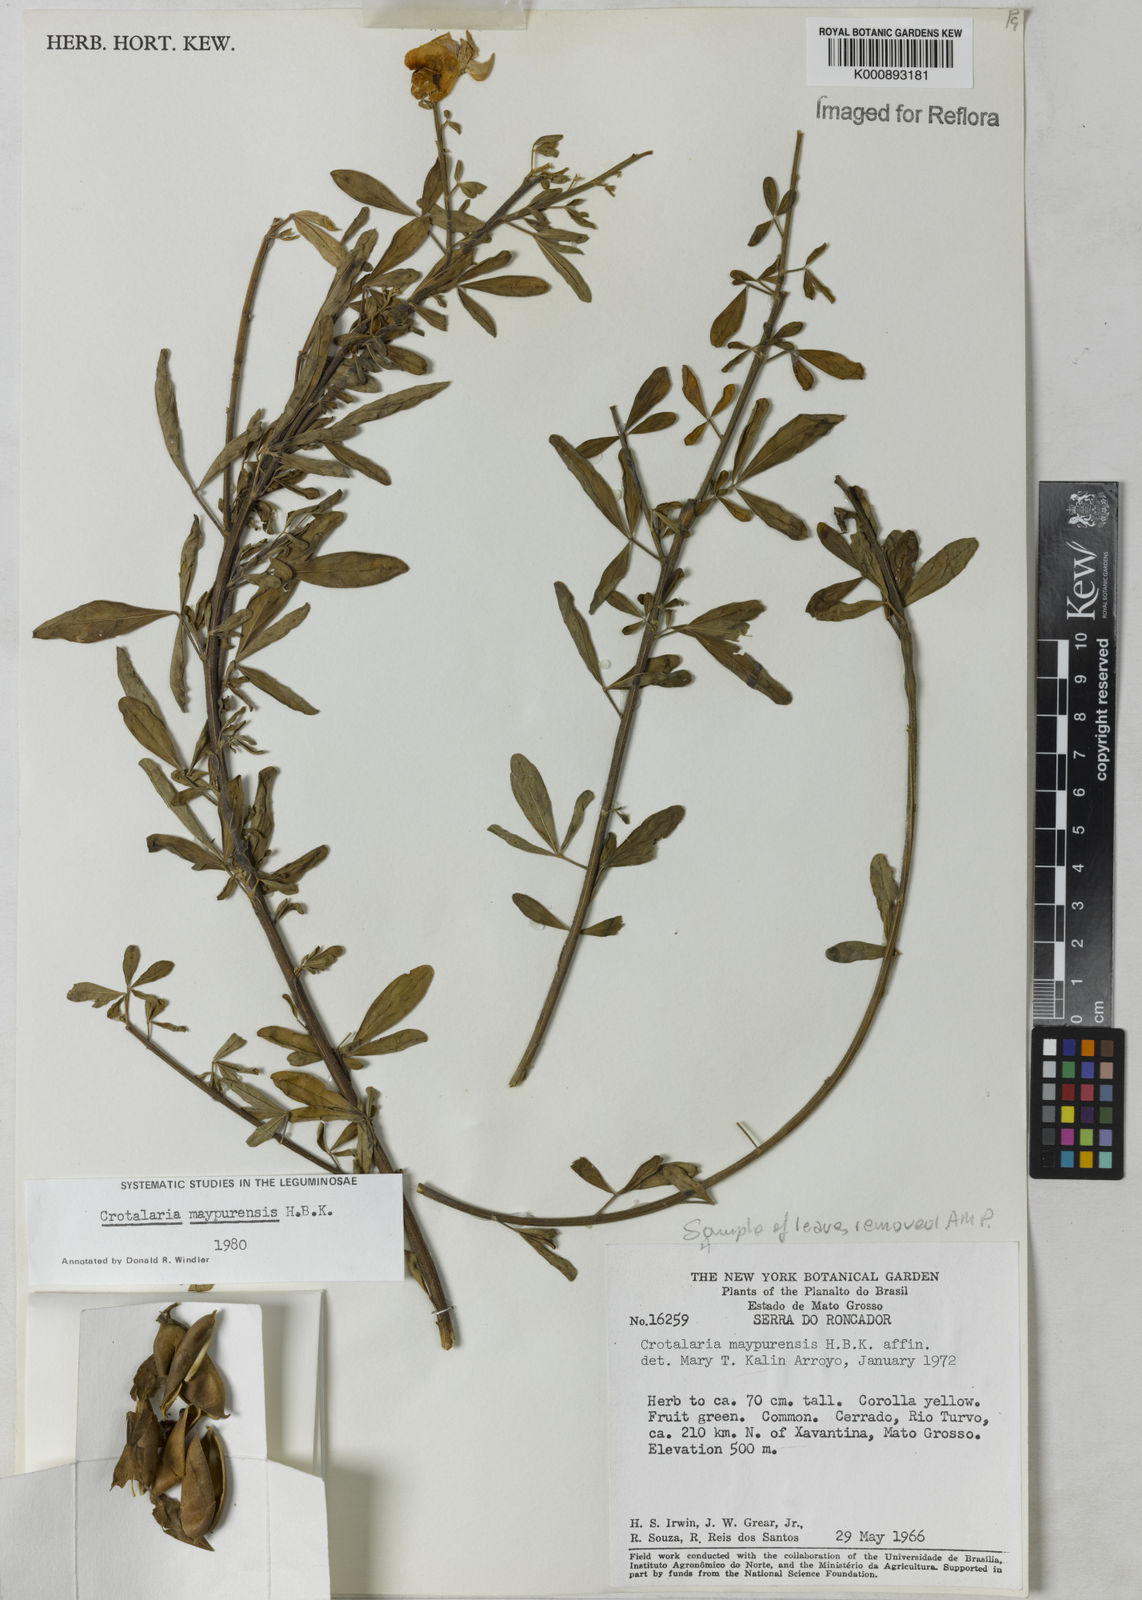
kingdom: Plantae
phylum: Tracheophyta
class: Magnoliopsida
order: Fabales
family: Fabaceae
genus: Crotalaria
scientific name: Crotalaria maypurensis
